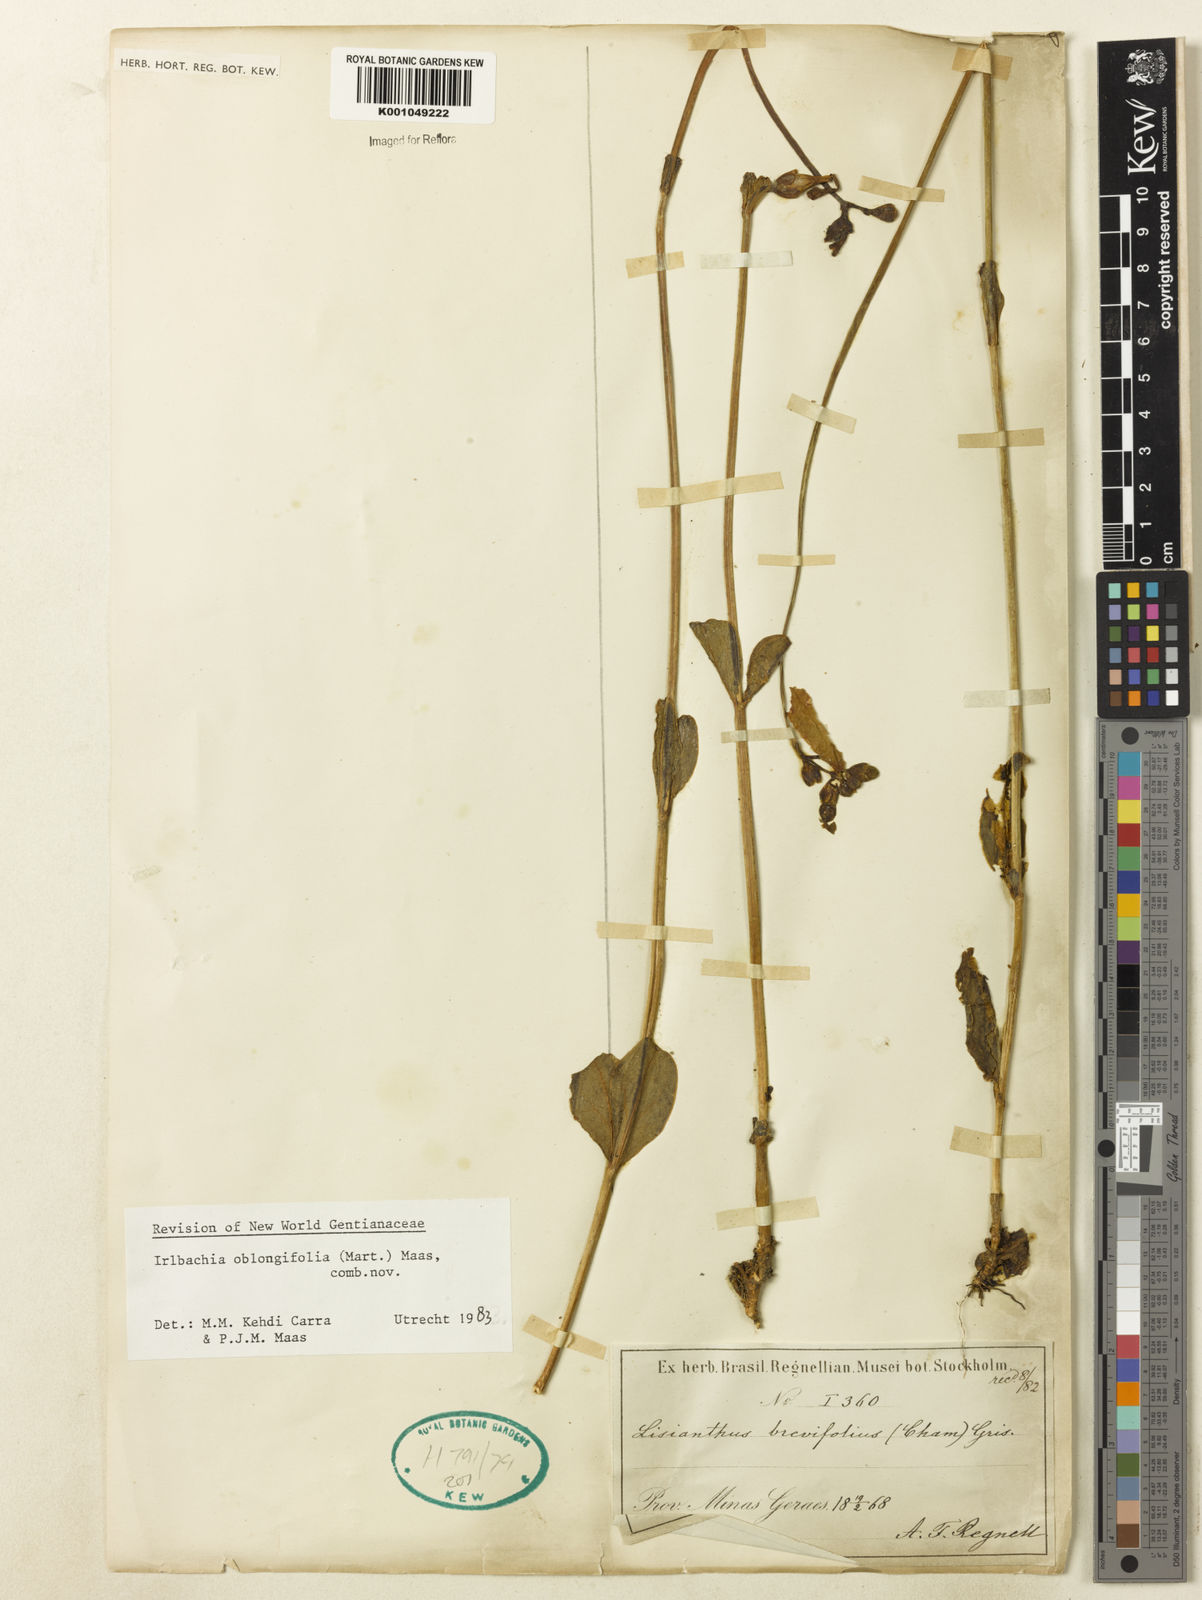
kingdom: Plantae
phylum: Tracheophyta
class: Magnoliopsida
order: Gentianales
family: Gentianaceae
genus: Irlbachia
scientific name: Irlbachia oblongifolia
